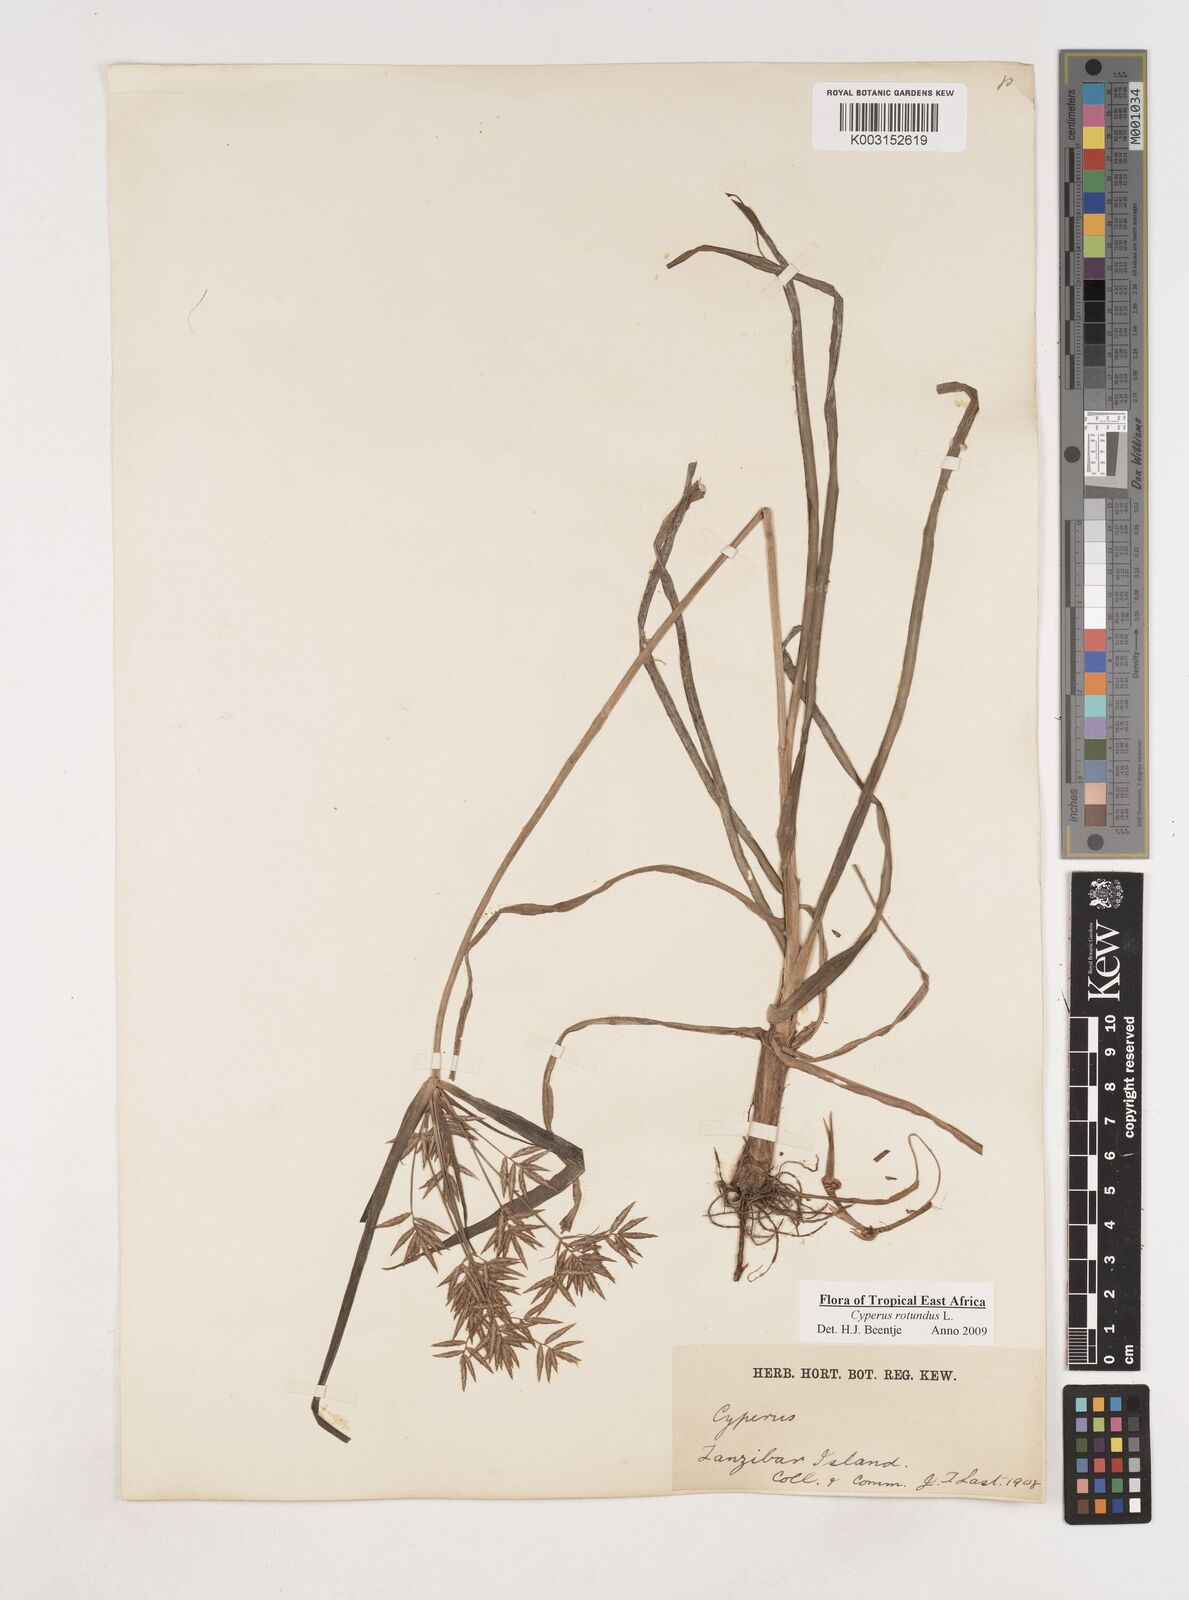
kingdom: Plantae
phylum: Tracheophyta
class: Liliopsida
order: Poales
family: Cyperaceae
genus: Cyperus
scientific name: Cyperus rotundus
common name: Nutgrass
